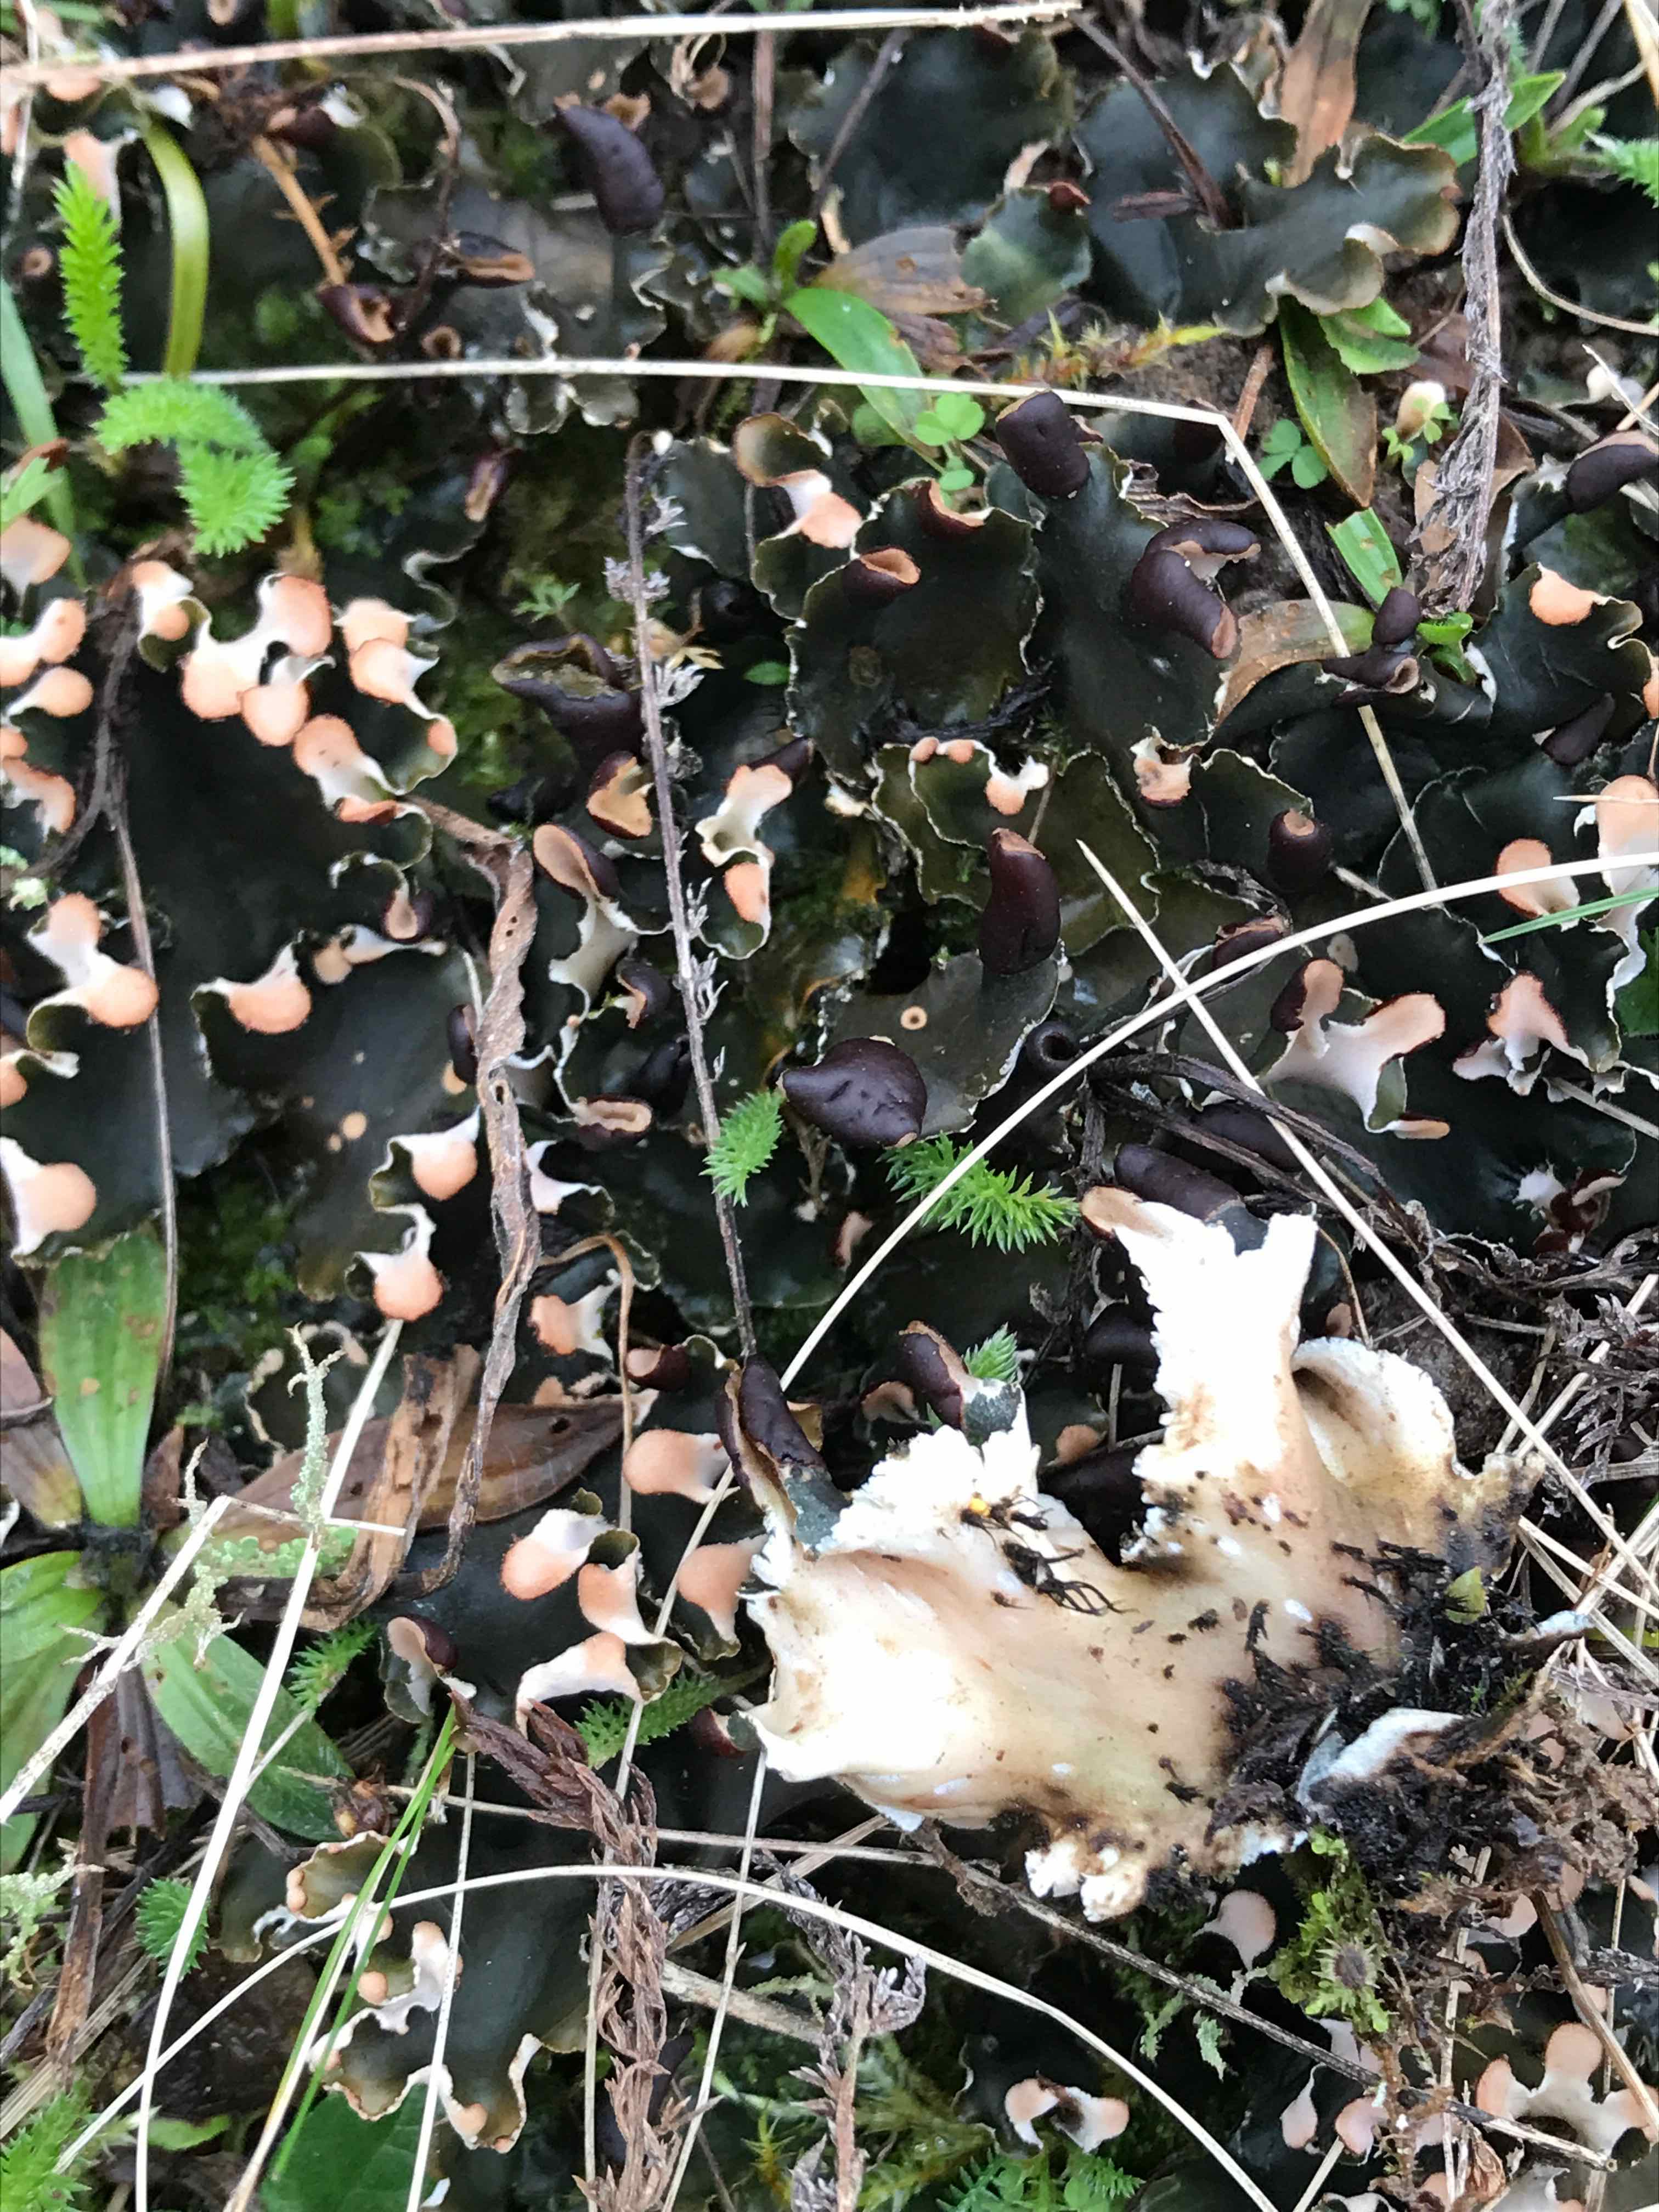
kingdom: Fungi
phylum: Ascomycota
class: Lecanoromycetes
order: Peltigerales
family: Peltigeraceae
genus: Peltigera
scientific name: Peltigera neckeri
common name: glinsende skjoldlav
